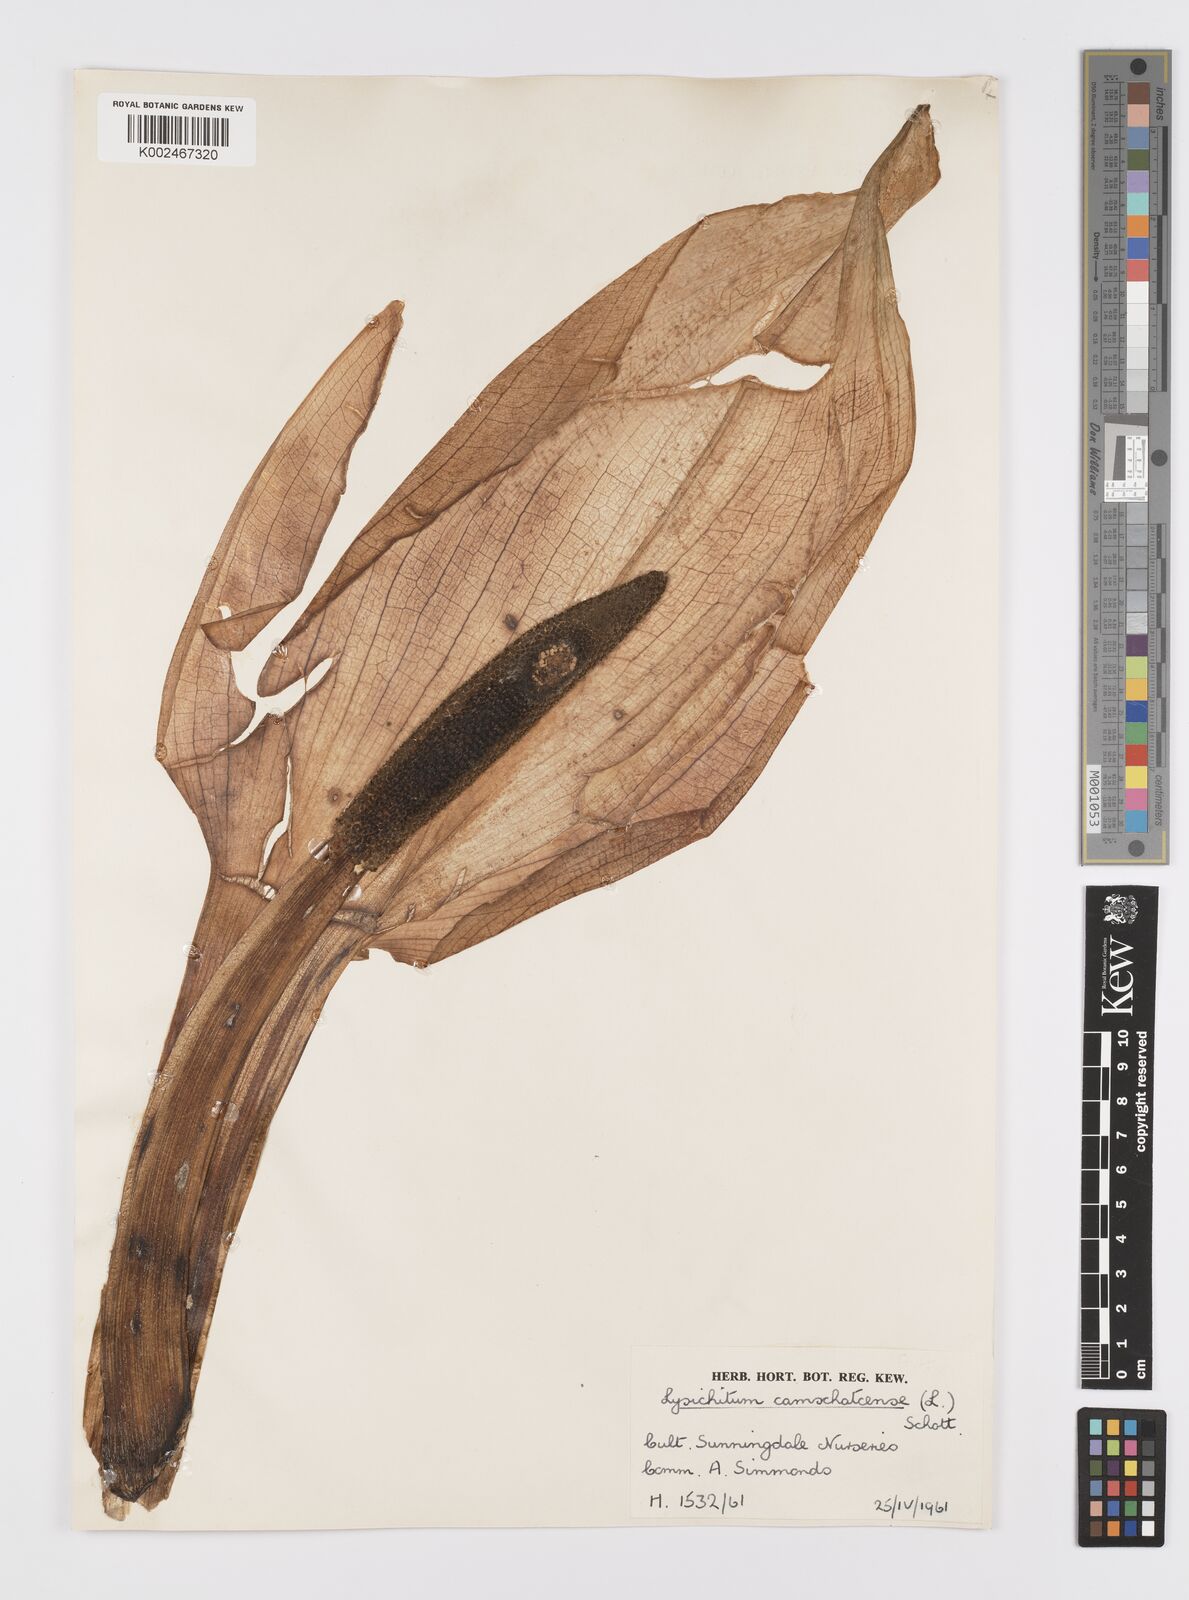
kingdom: Plantae
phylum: Tracheophyta
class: Liliopsida
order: Alismatales
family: Araceae
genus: Lysichiton
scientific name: Lysichiton americanus
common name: American skunk cabbage
